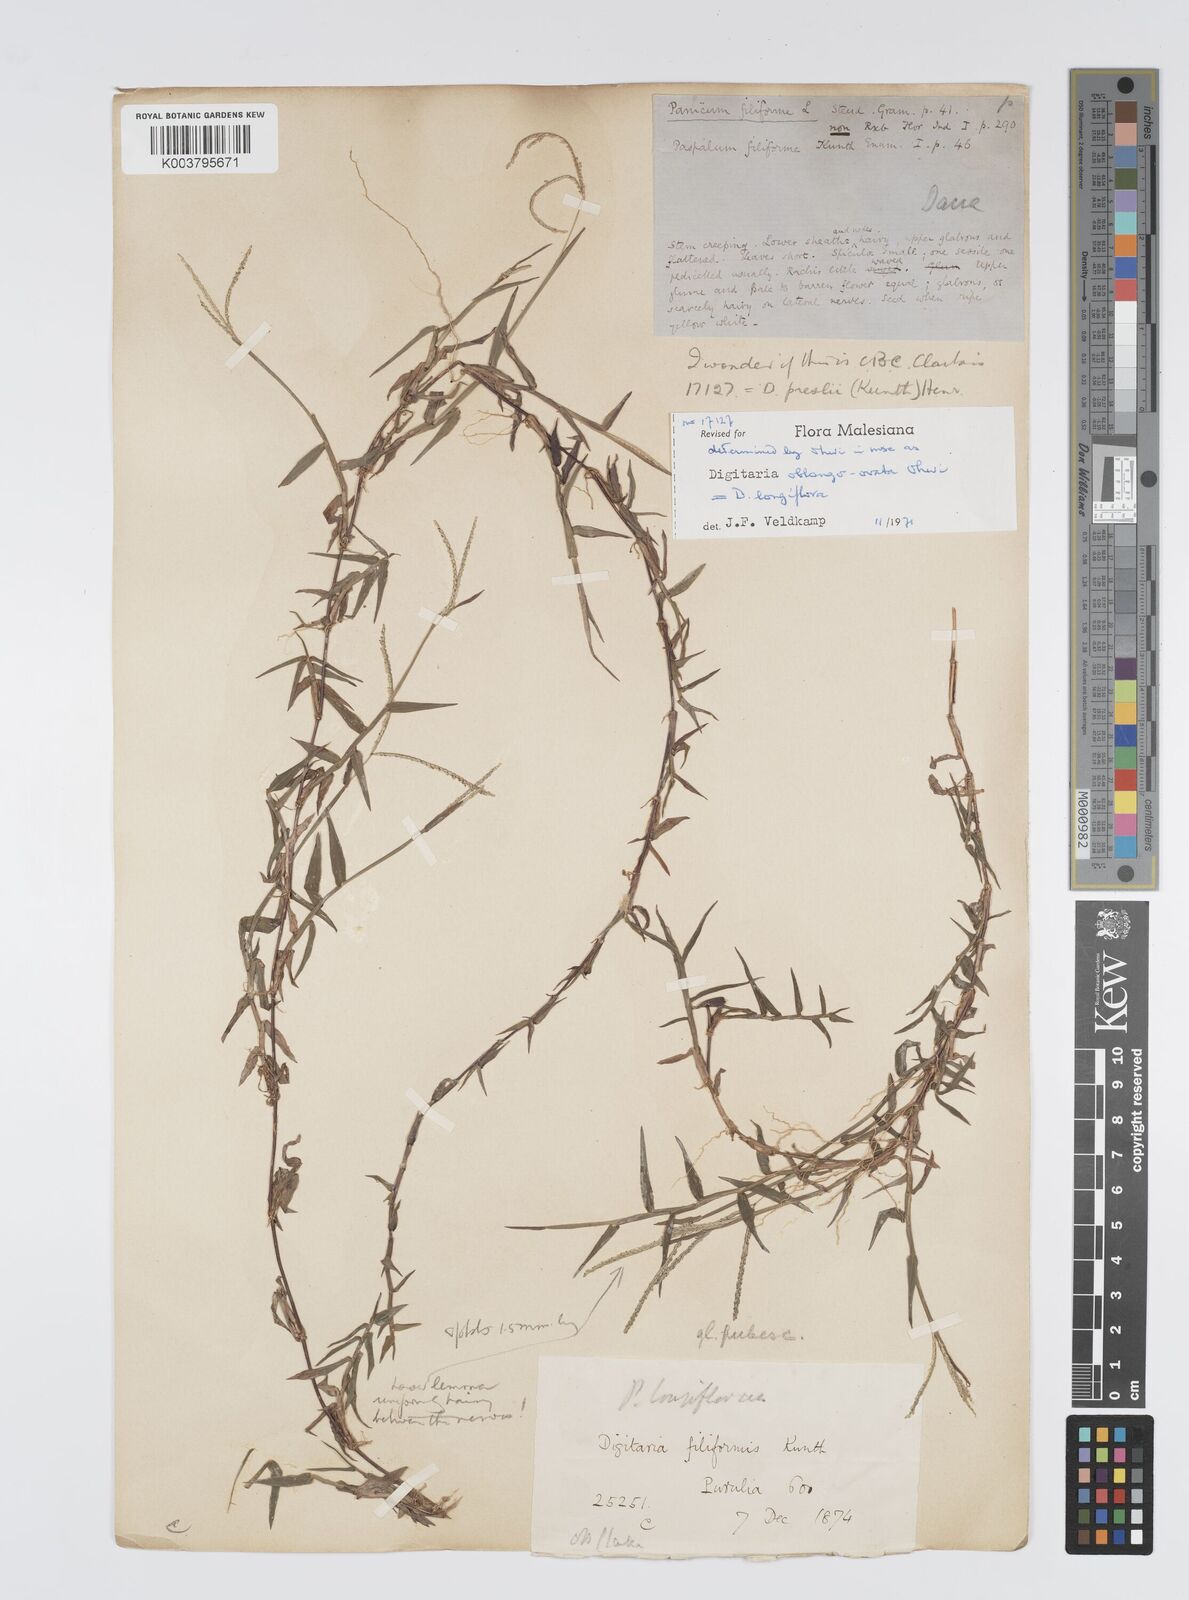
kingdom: Plantae
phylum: Tracheophyta
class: Liliopsida
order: Poales
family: Poaceae
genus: Digitaria
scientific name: Digitaria longiflora
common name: Wire crabgrass
